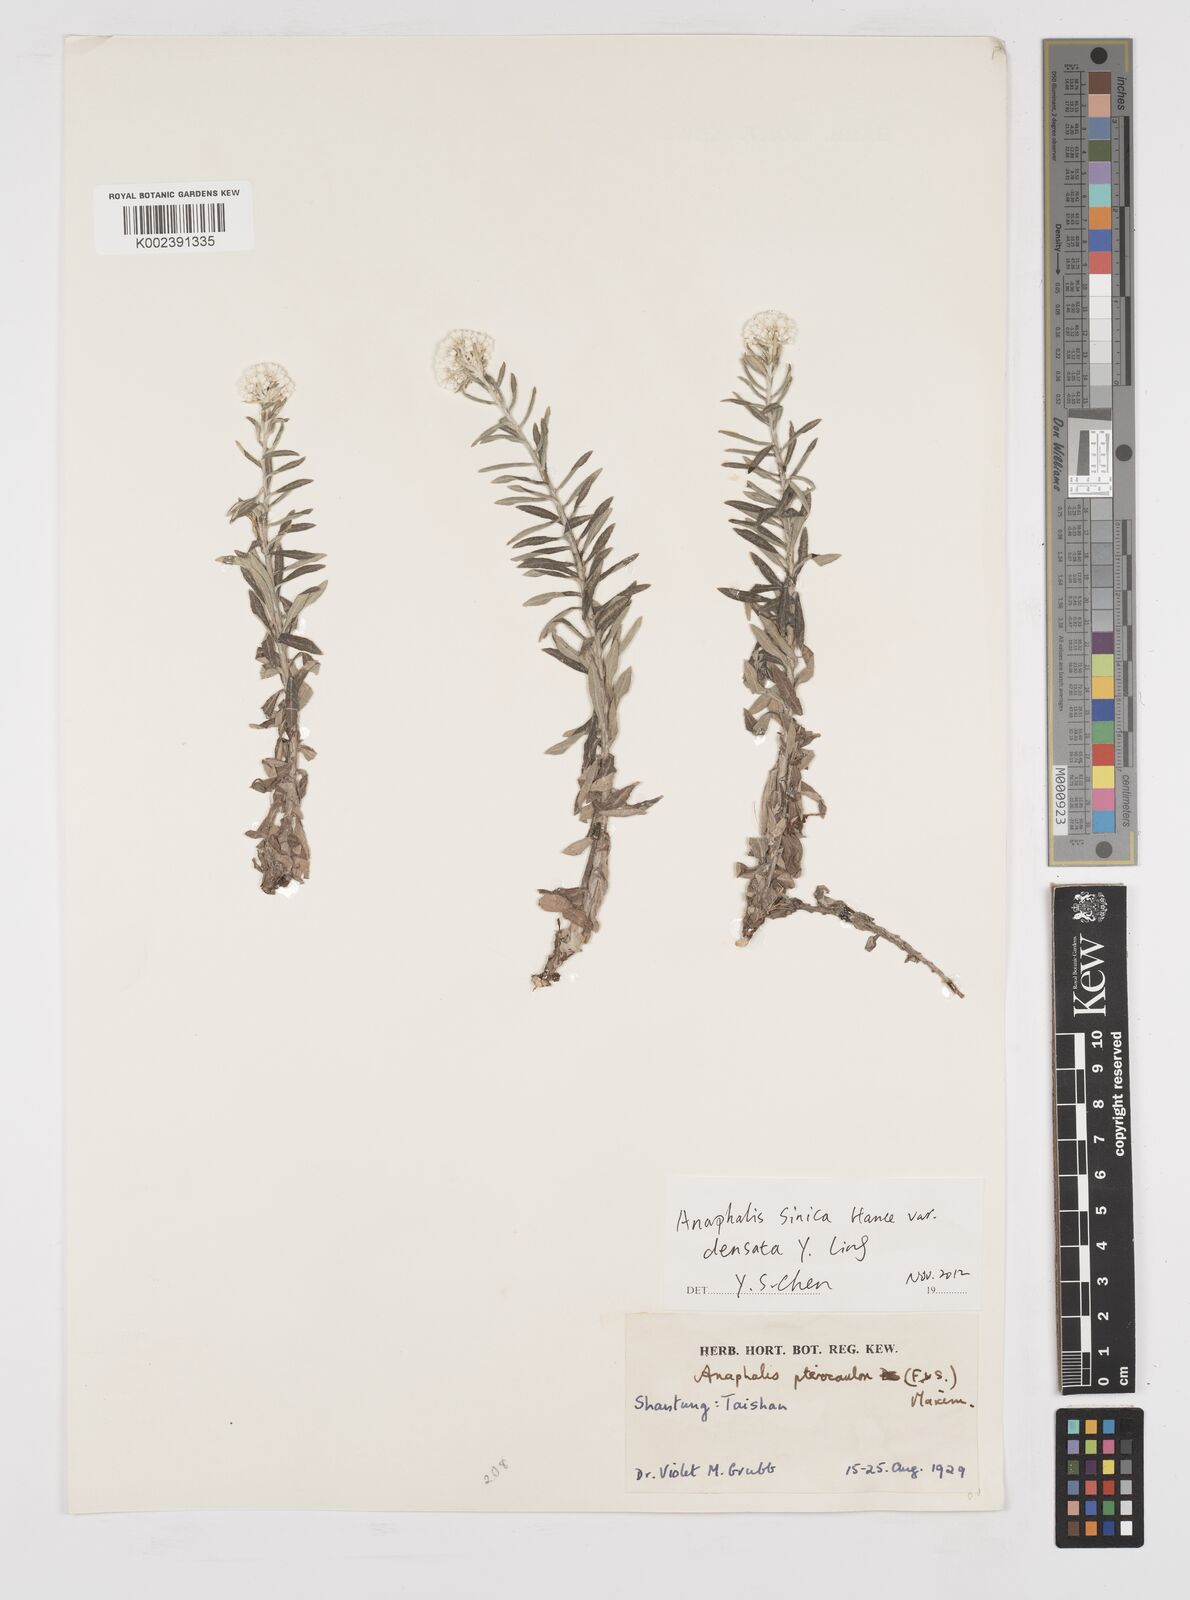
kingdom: Plantae
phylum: Tracheophyta
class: Magnoliopsida
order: Asterales
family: Asteraceae
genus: Anaphalis
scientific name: Anaphalis sinica
